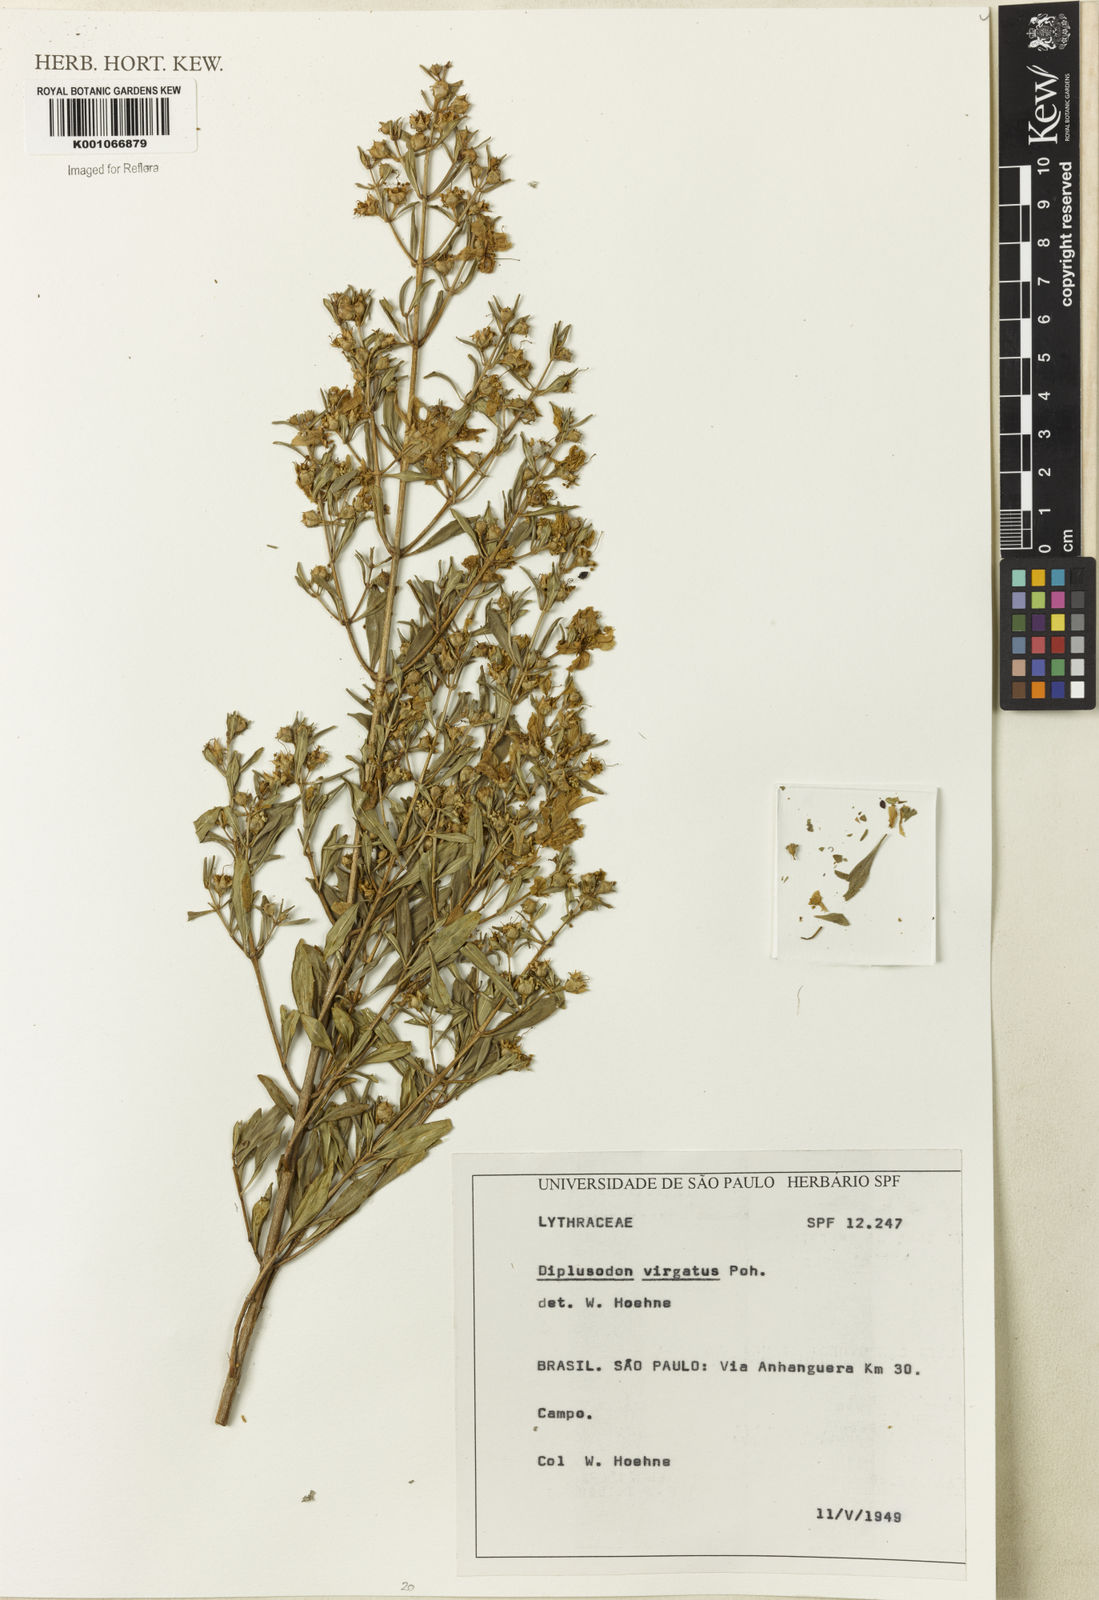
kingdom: Plantae
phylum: Tracheophyta
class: Magnoliopsida
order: Myrtales
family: Lythraceae
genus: Diplusodon
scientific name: Diplusodon virgatus
